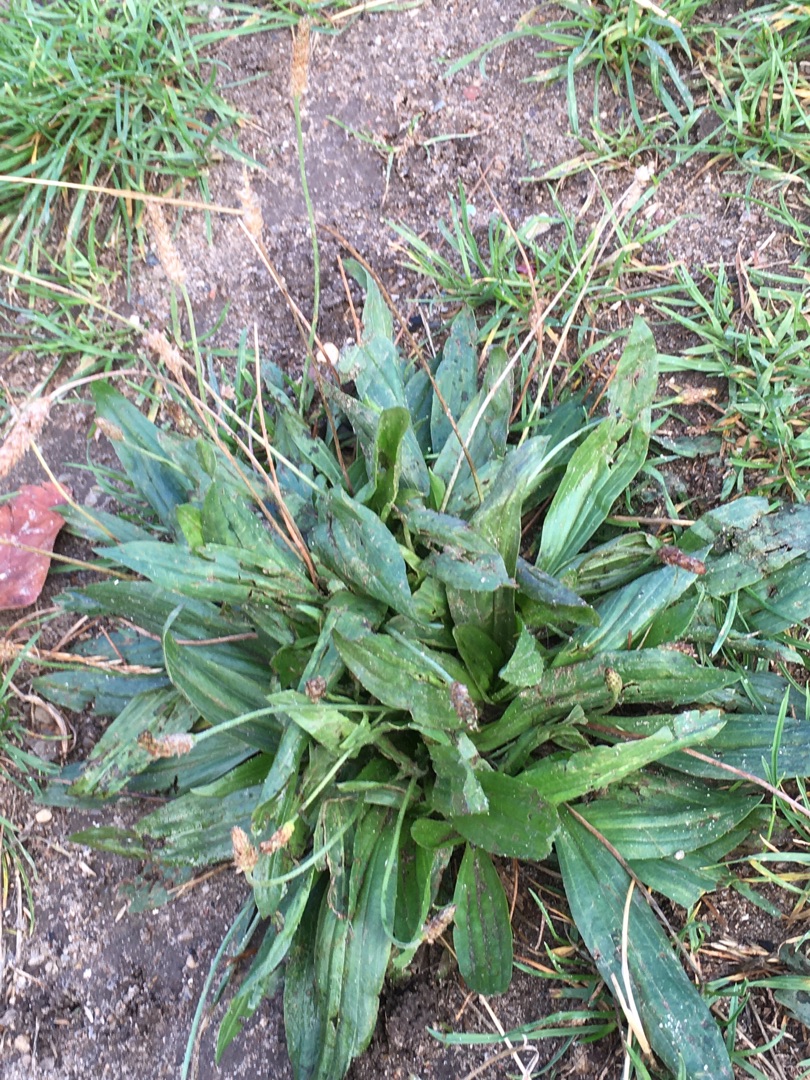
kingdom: Plantae
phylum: Tracheophyta
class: Magnoliopsida
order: Lamiales
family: Plantaginaceae
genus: Plantago
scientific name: Plantago lanceolata
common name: Lancet-vejbred
